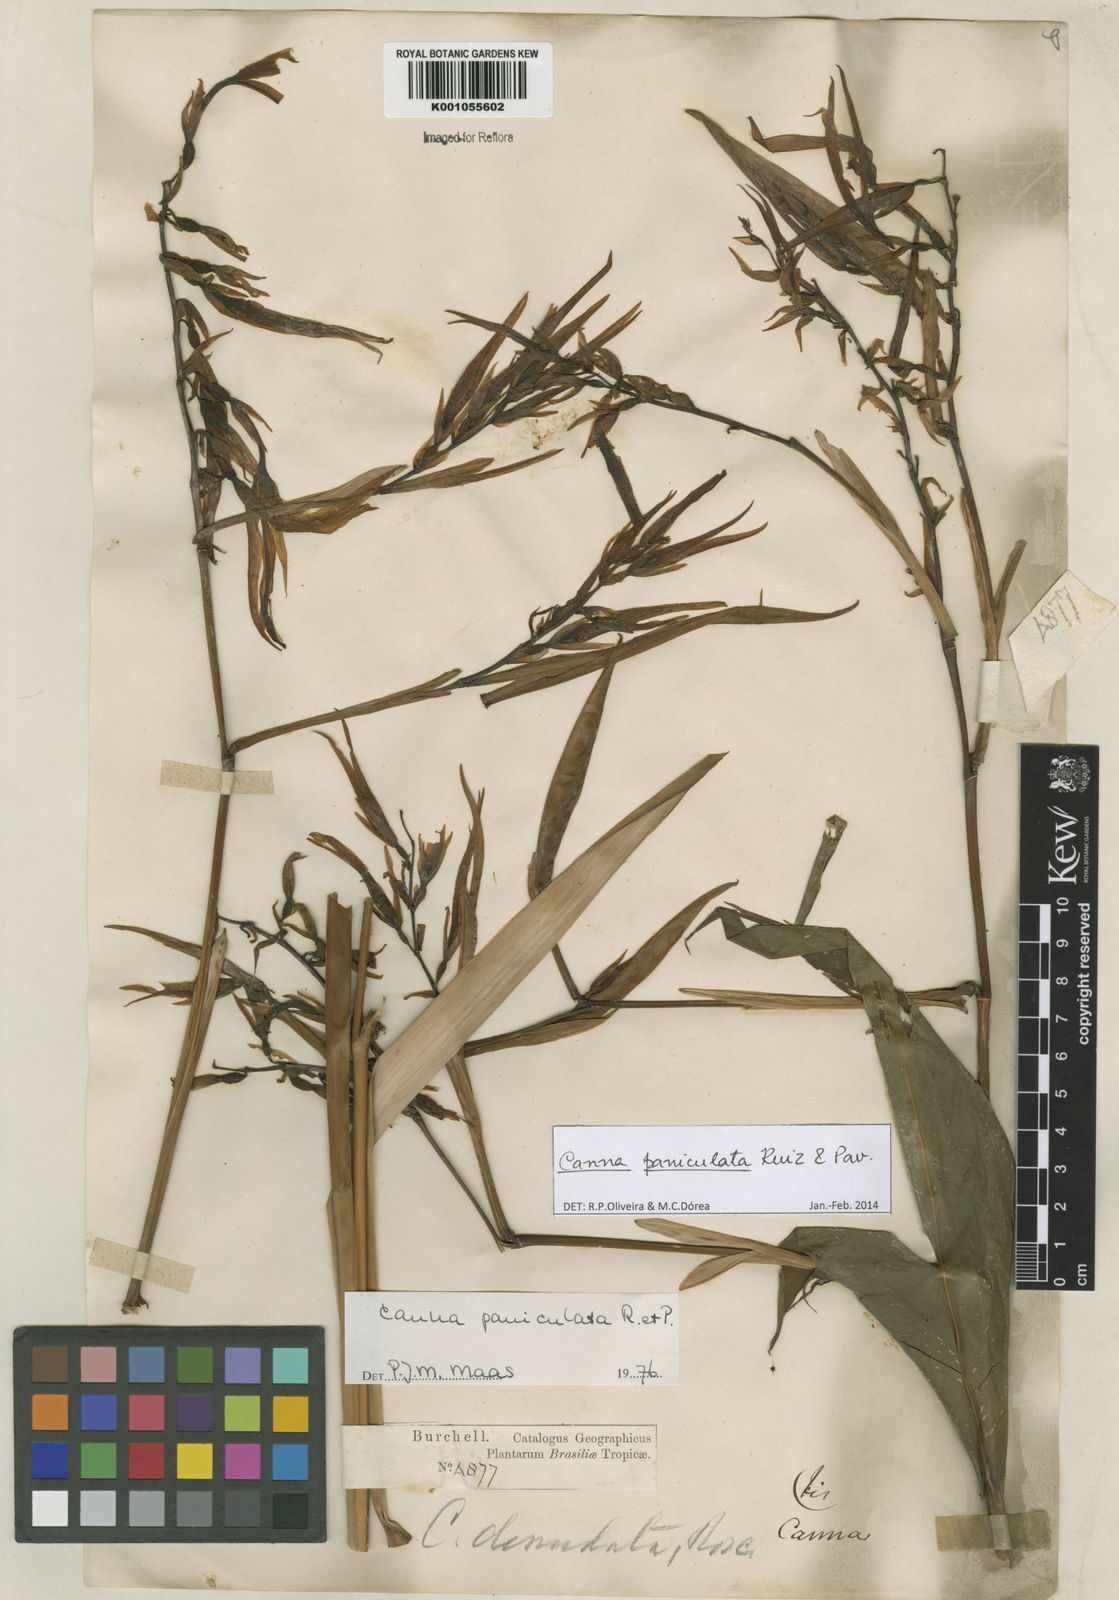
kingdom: Plantae
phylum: Tracheophyta
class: Liliopsida
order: Zingiberales
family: Cannaceae
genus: Canna
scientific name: Canna paniculata
